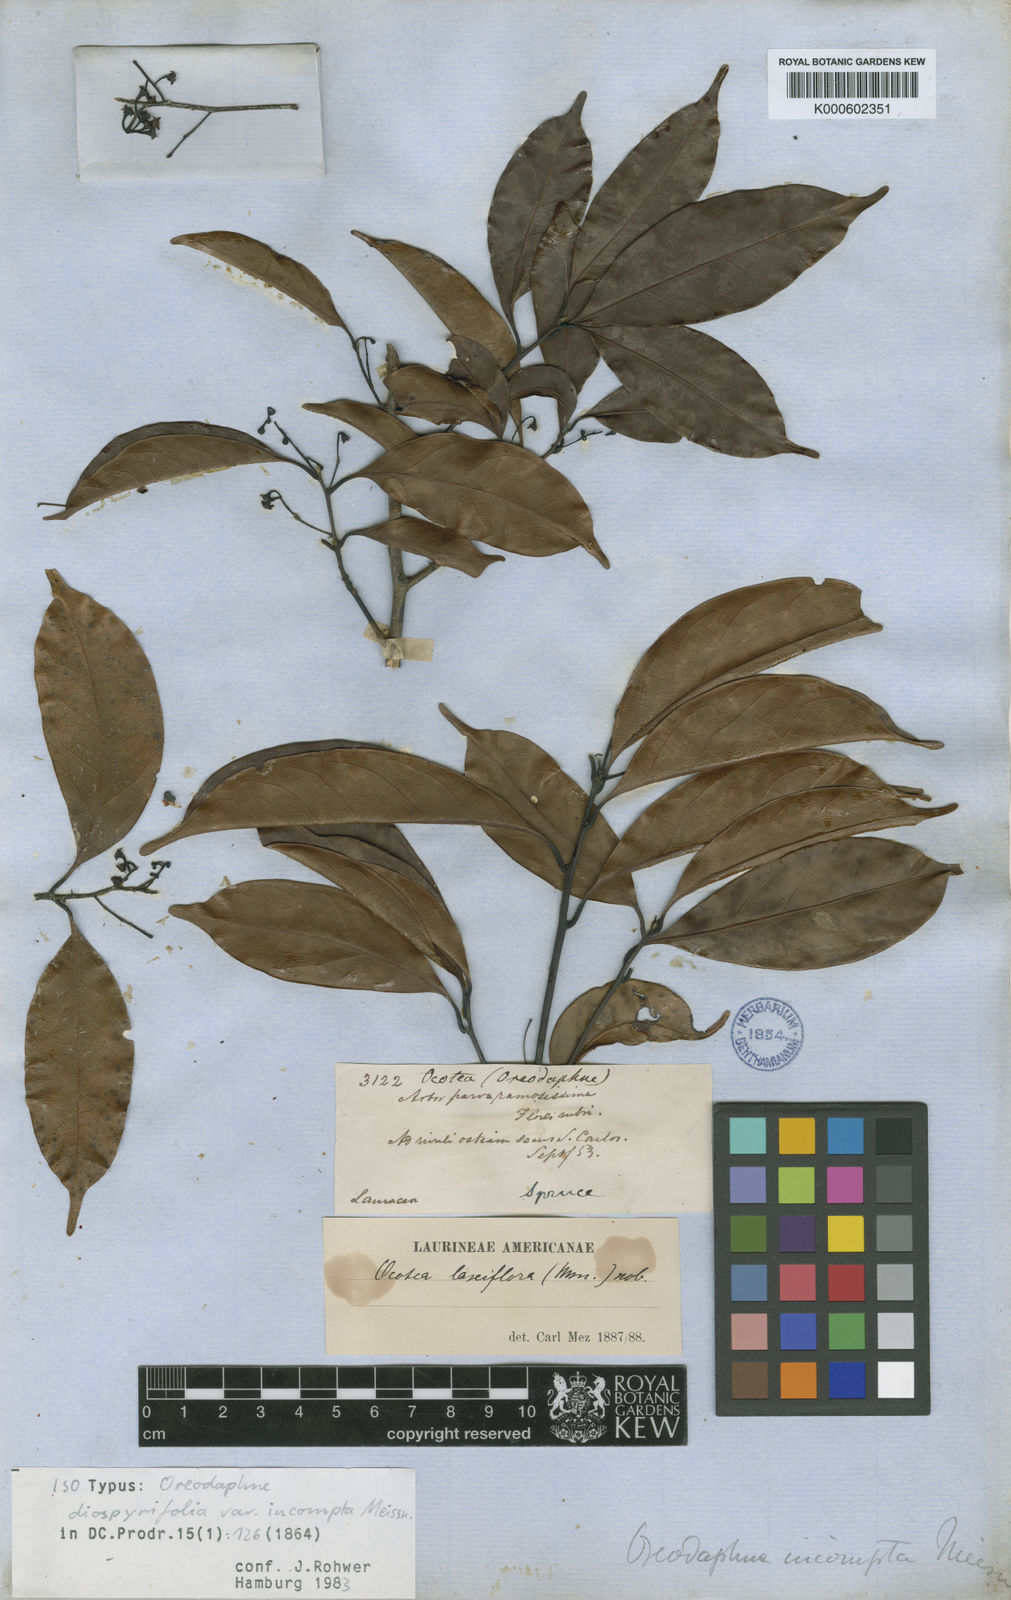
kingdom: Plantae
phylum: Tracheophyta
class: Magnoliopsida
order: Laurales
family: Lauraceae
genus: Ocotea
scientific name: Ocotea pauciflora
